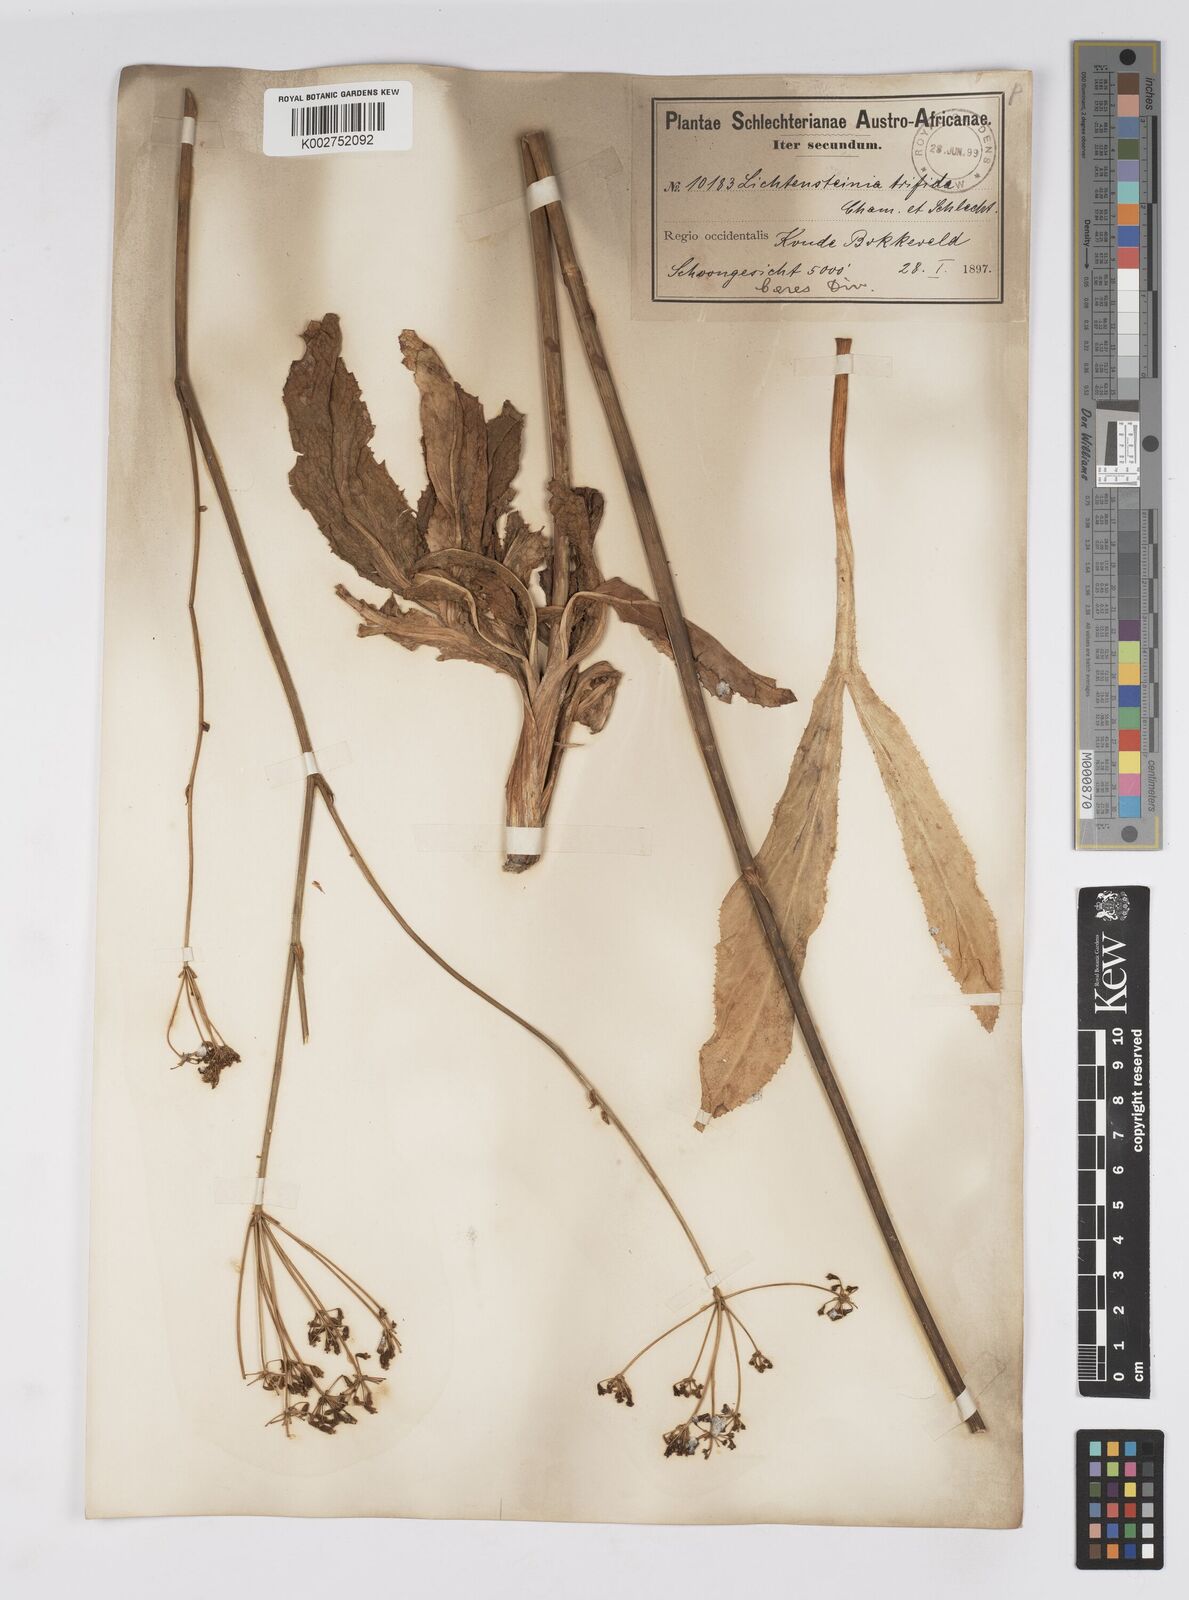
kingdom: Plantae
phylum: Tracheophyta
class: Magnoliopsida
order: Apiales
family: Apiaceae
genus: Lichtensteinia
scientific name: Lichtensteinia trifida
